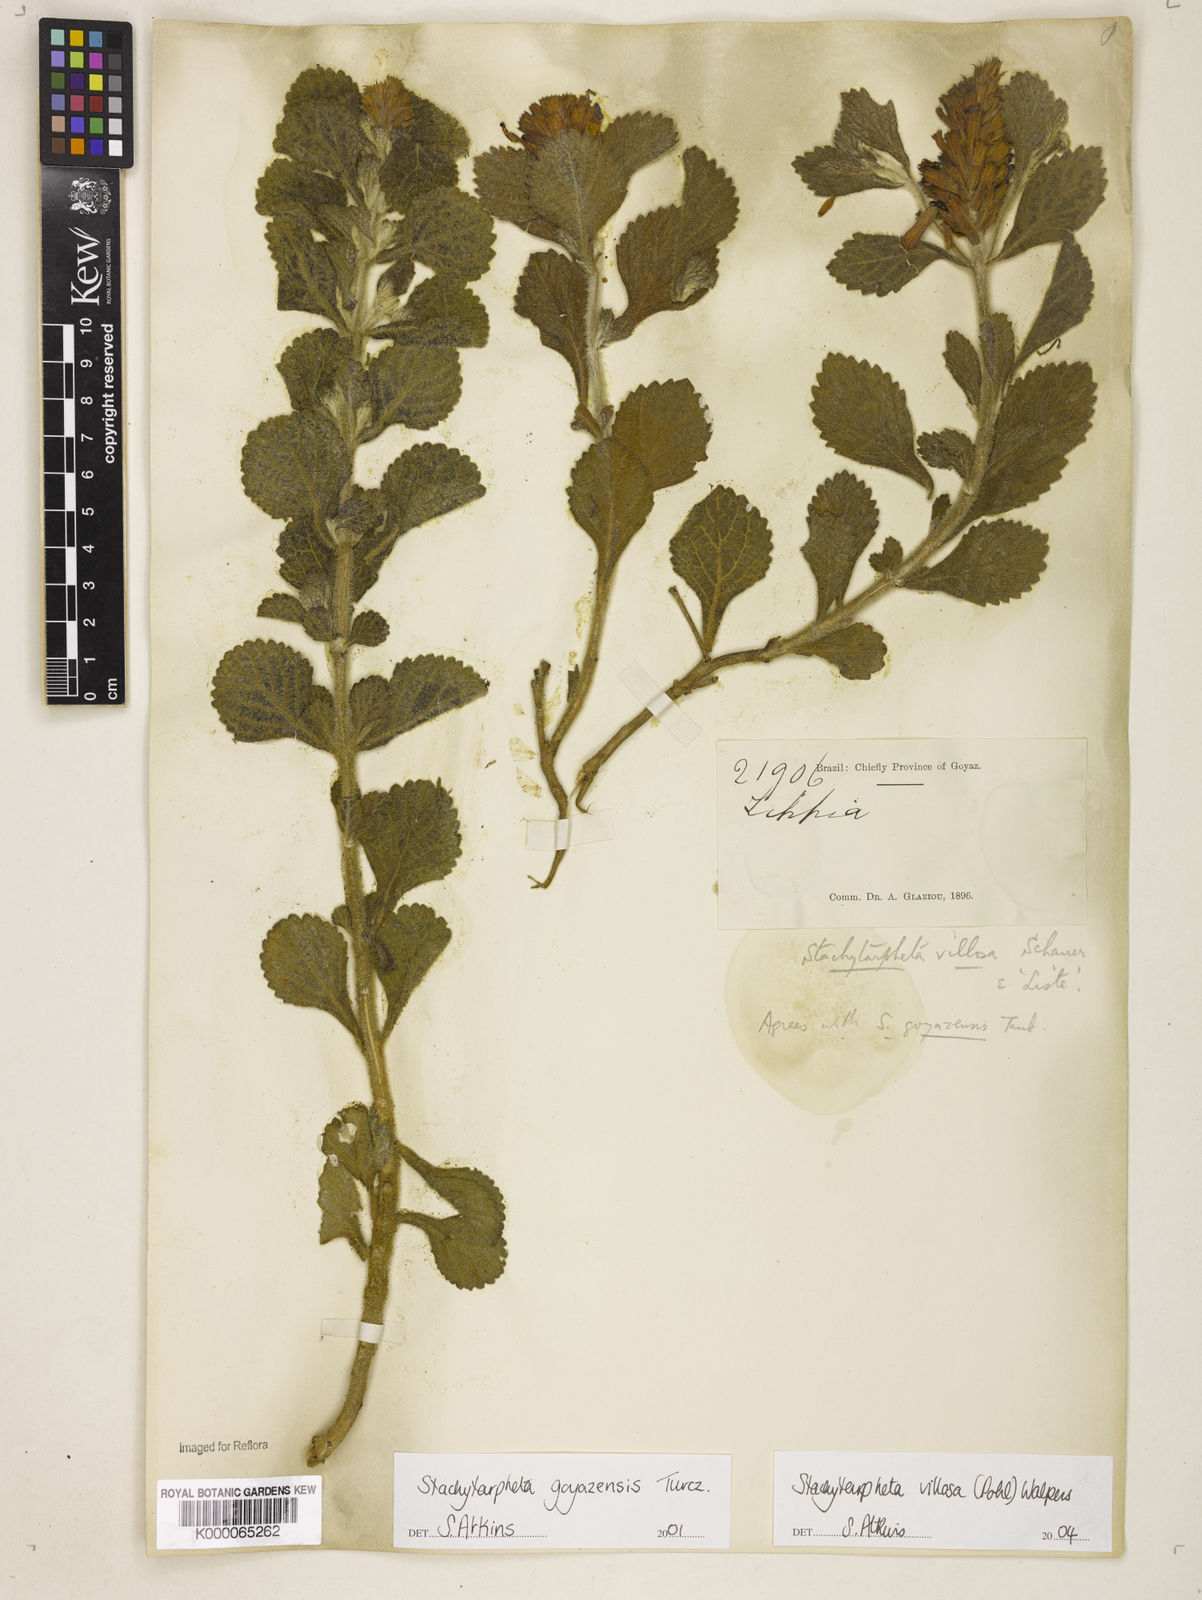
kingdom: Plantae
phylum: Tracheophyta
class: Magnoliopsida
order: Lamiales
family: Verbenaceae
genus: Stachytarpheta
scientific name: Stachytarpheta villosa
